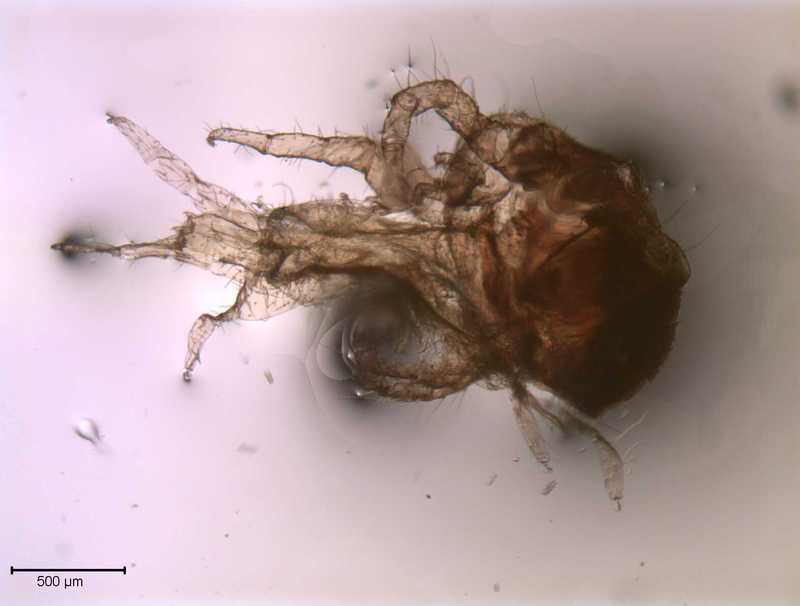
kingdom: Animalia
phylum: Arthropoda
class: Arachnida
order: Mesostigmata
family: Laelapidae
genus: Dinogamasus
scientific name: Dinogamasus
